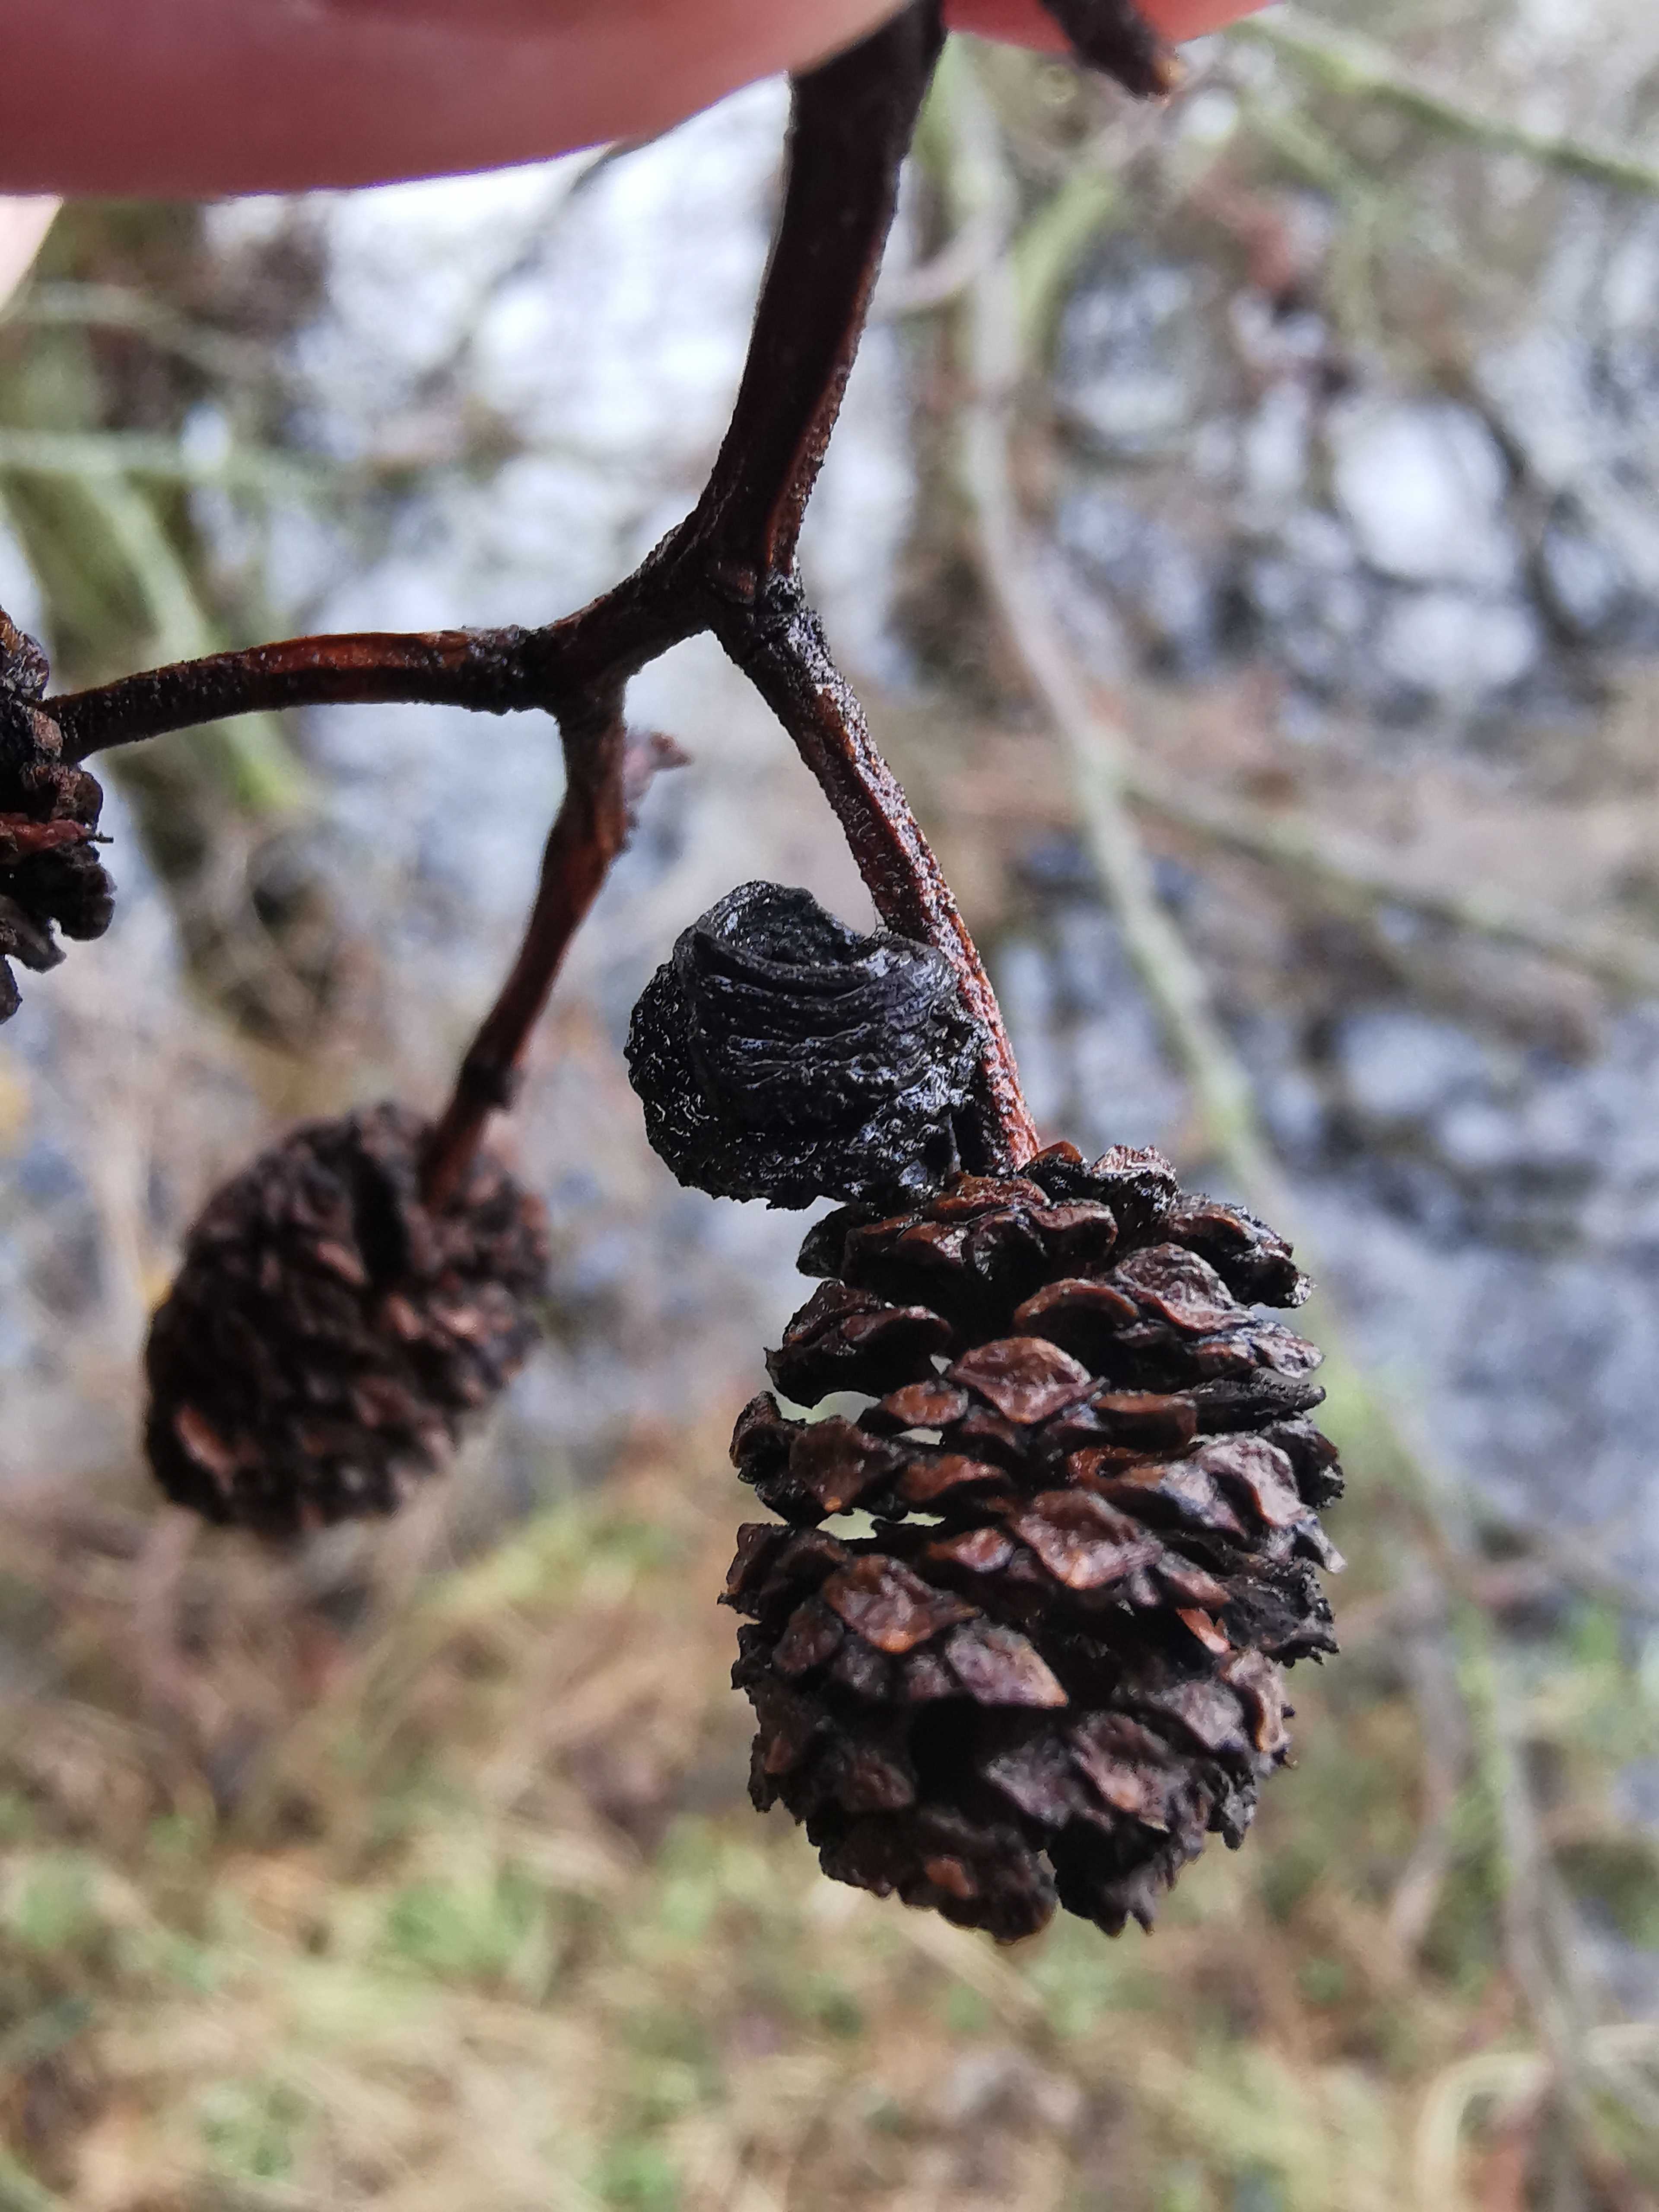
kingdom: Fungi
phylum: Ascomycota
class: Taphrinomycetes
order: Taphrinales
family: Taphrinaceae
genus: Taphrina
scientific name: Taphrina alni
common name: Alder tongue
